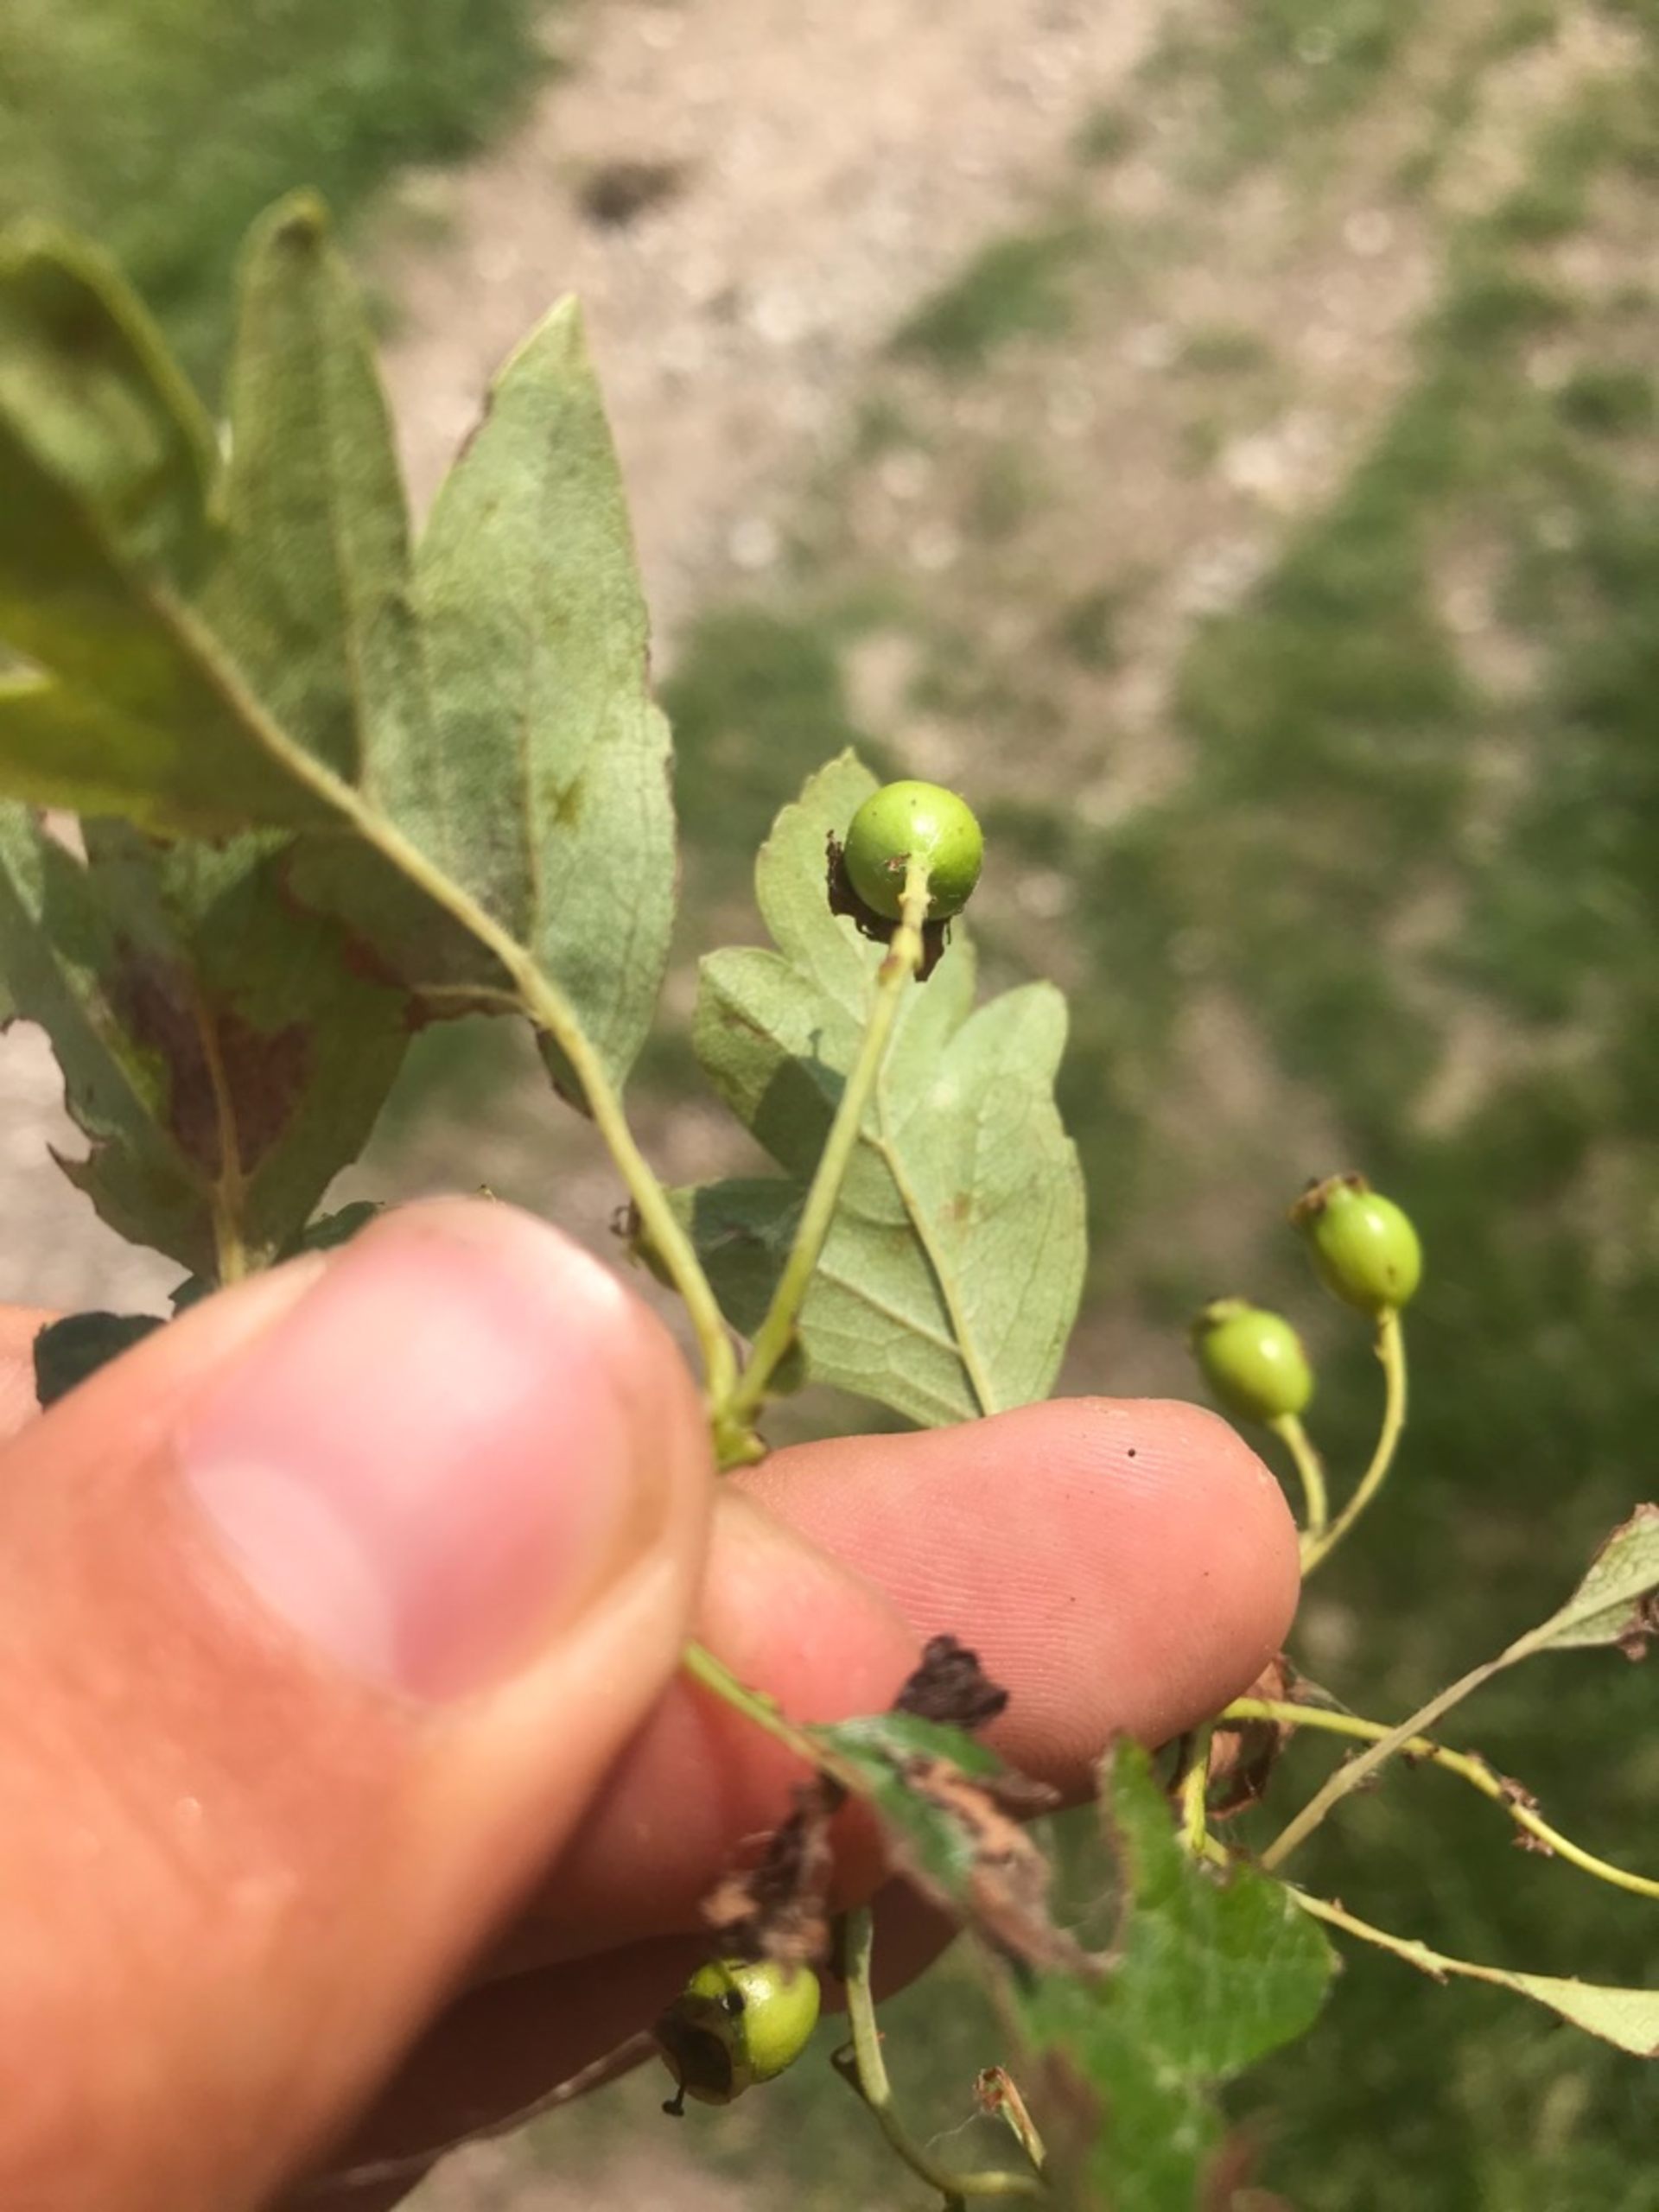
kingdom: Plantae
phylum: Tracheophyta
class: Magnoliopsida
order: Rosales
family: Rosaceae
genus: Crataegus
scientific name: Crataegus monogyna
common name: Engriflet hvidtjørn
